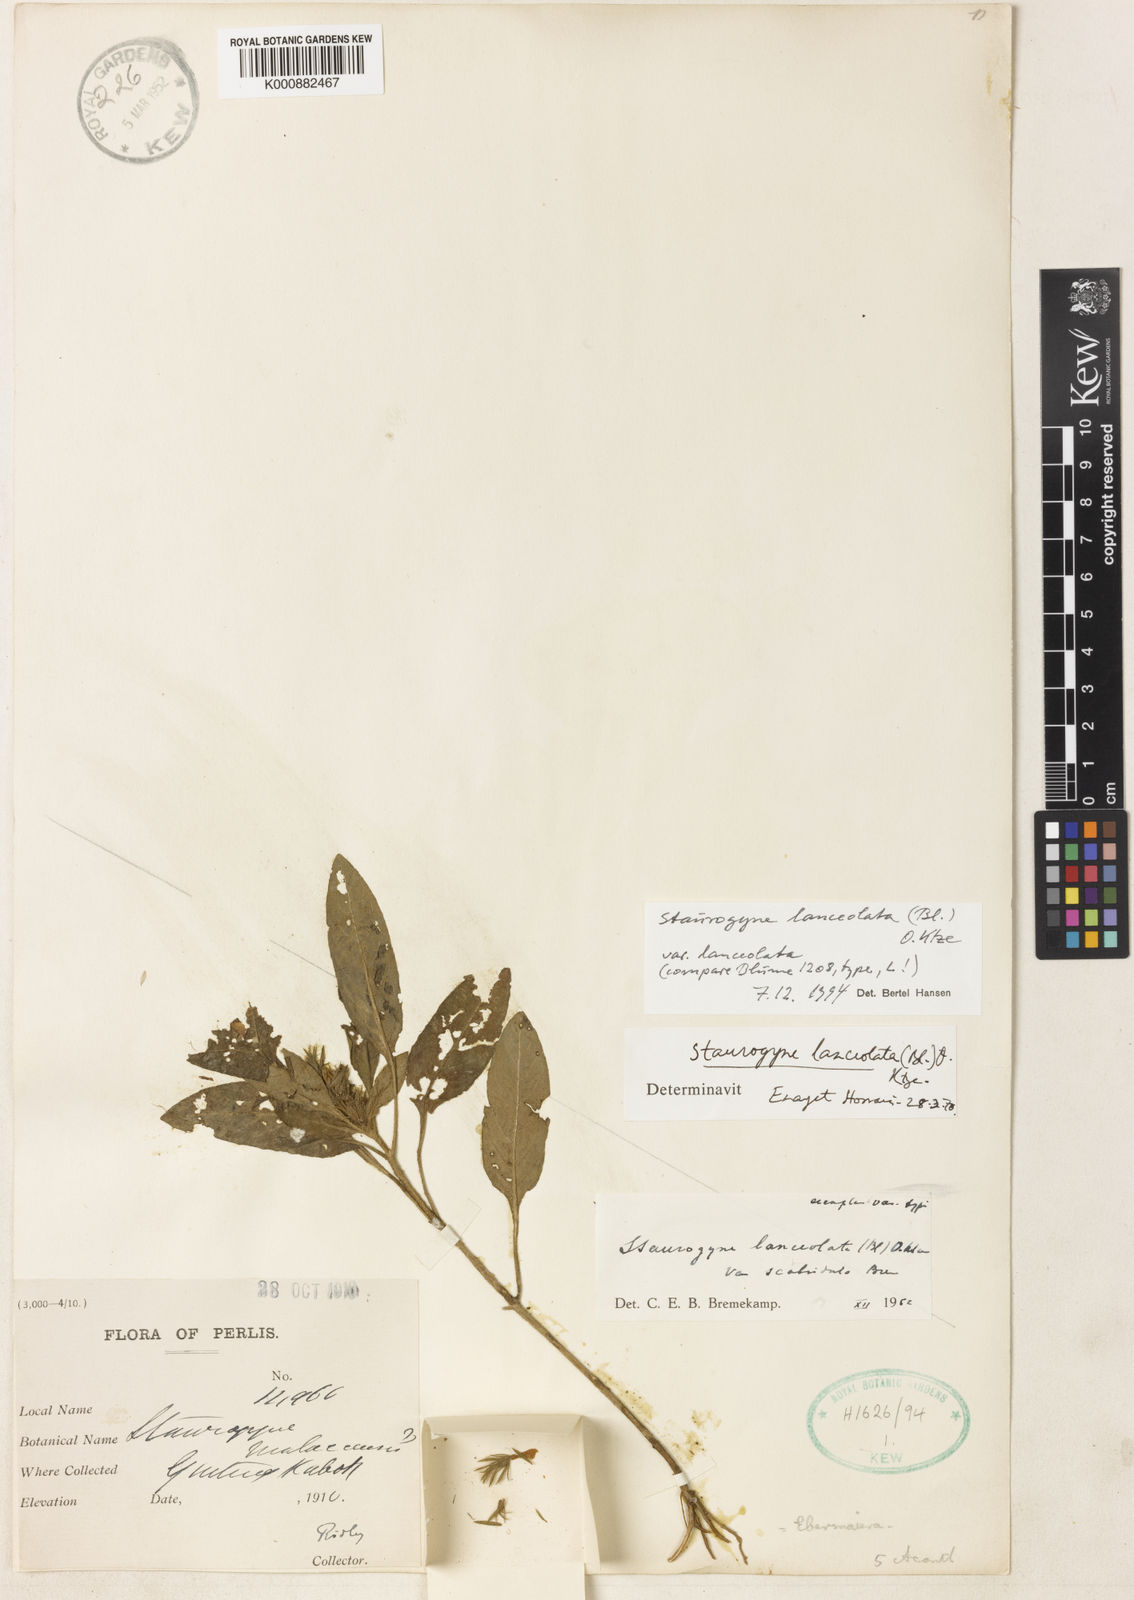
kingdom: Plantae
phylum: Tracheophyta
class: Magnoliopsida
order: Lamiales
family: Acanthaceae
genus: Staurogyne
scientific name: Staurogyne lanceolata
